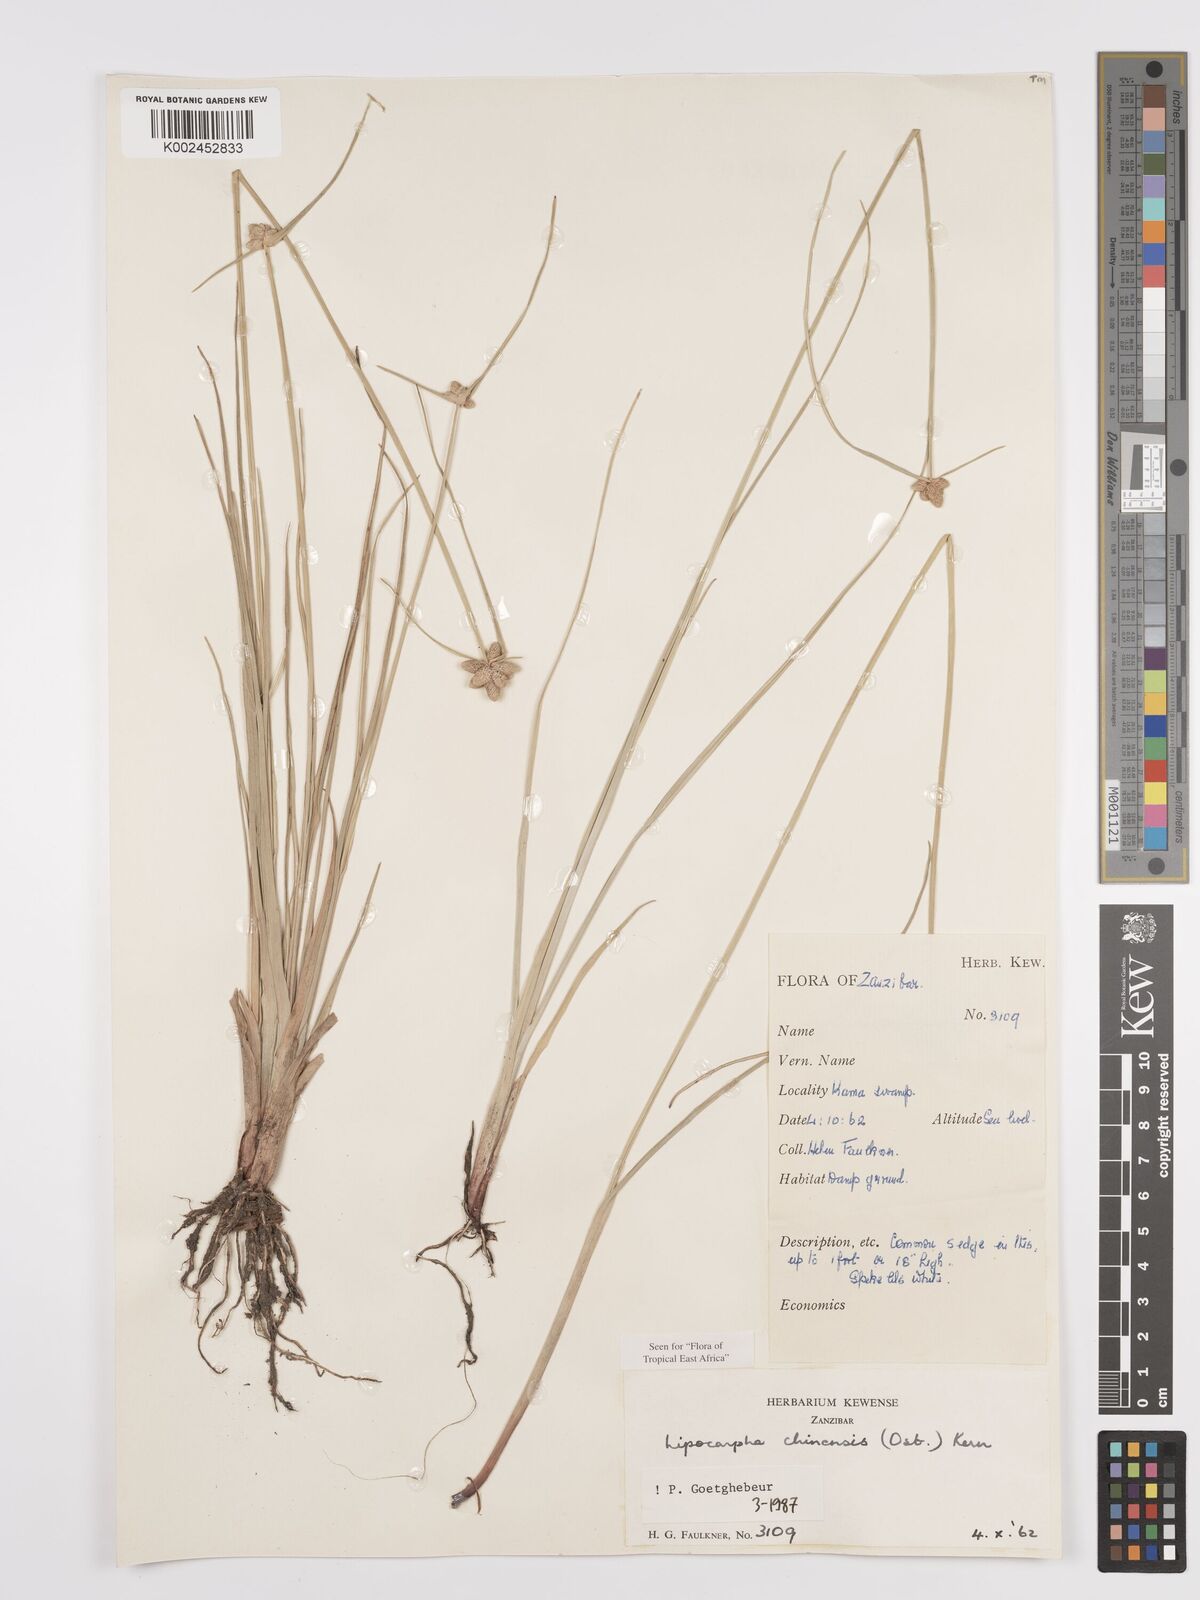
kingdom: Plantae
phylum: Tracheophyta
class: Liliopsida
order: Poales
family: Cyperaceae
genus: Cyperus
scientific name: Cyperus
